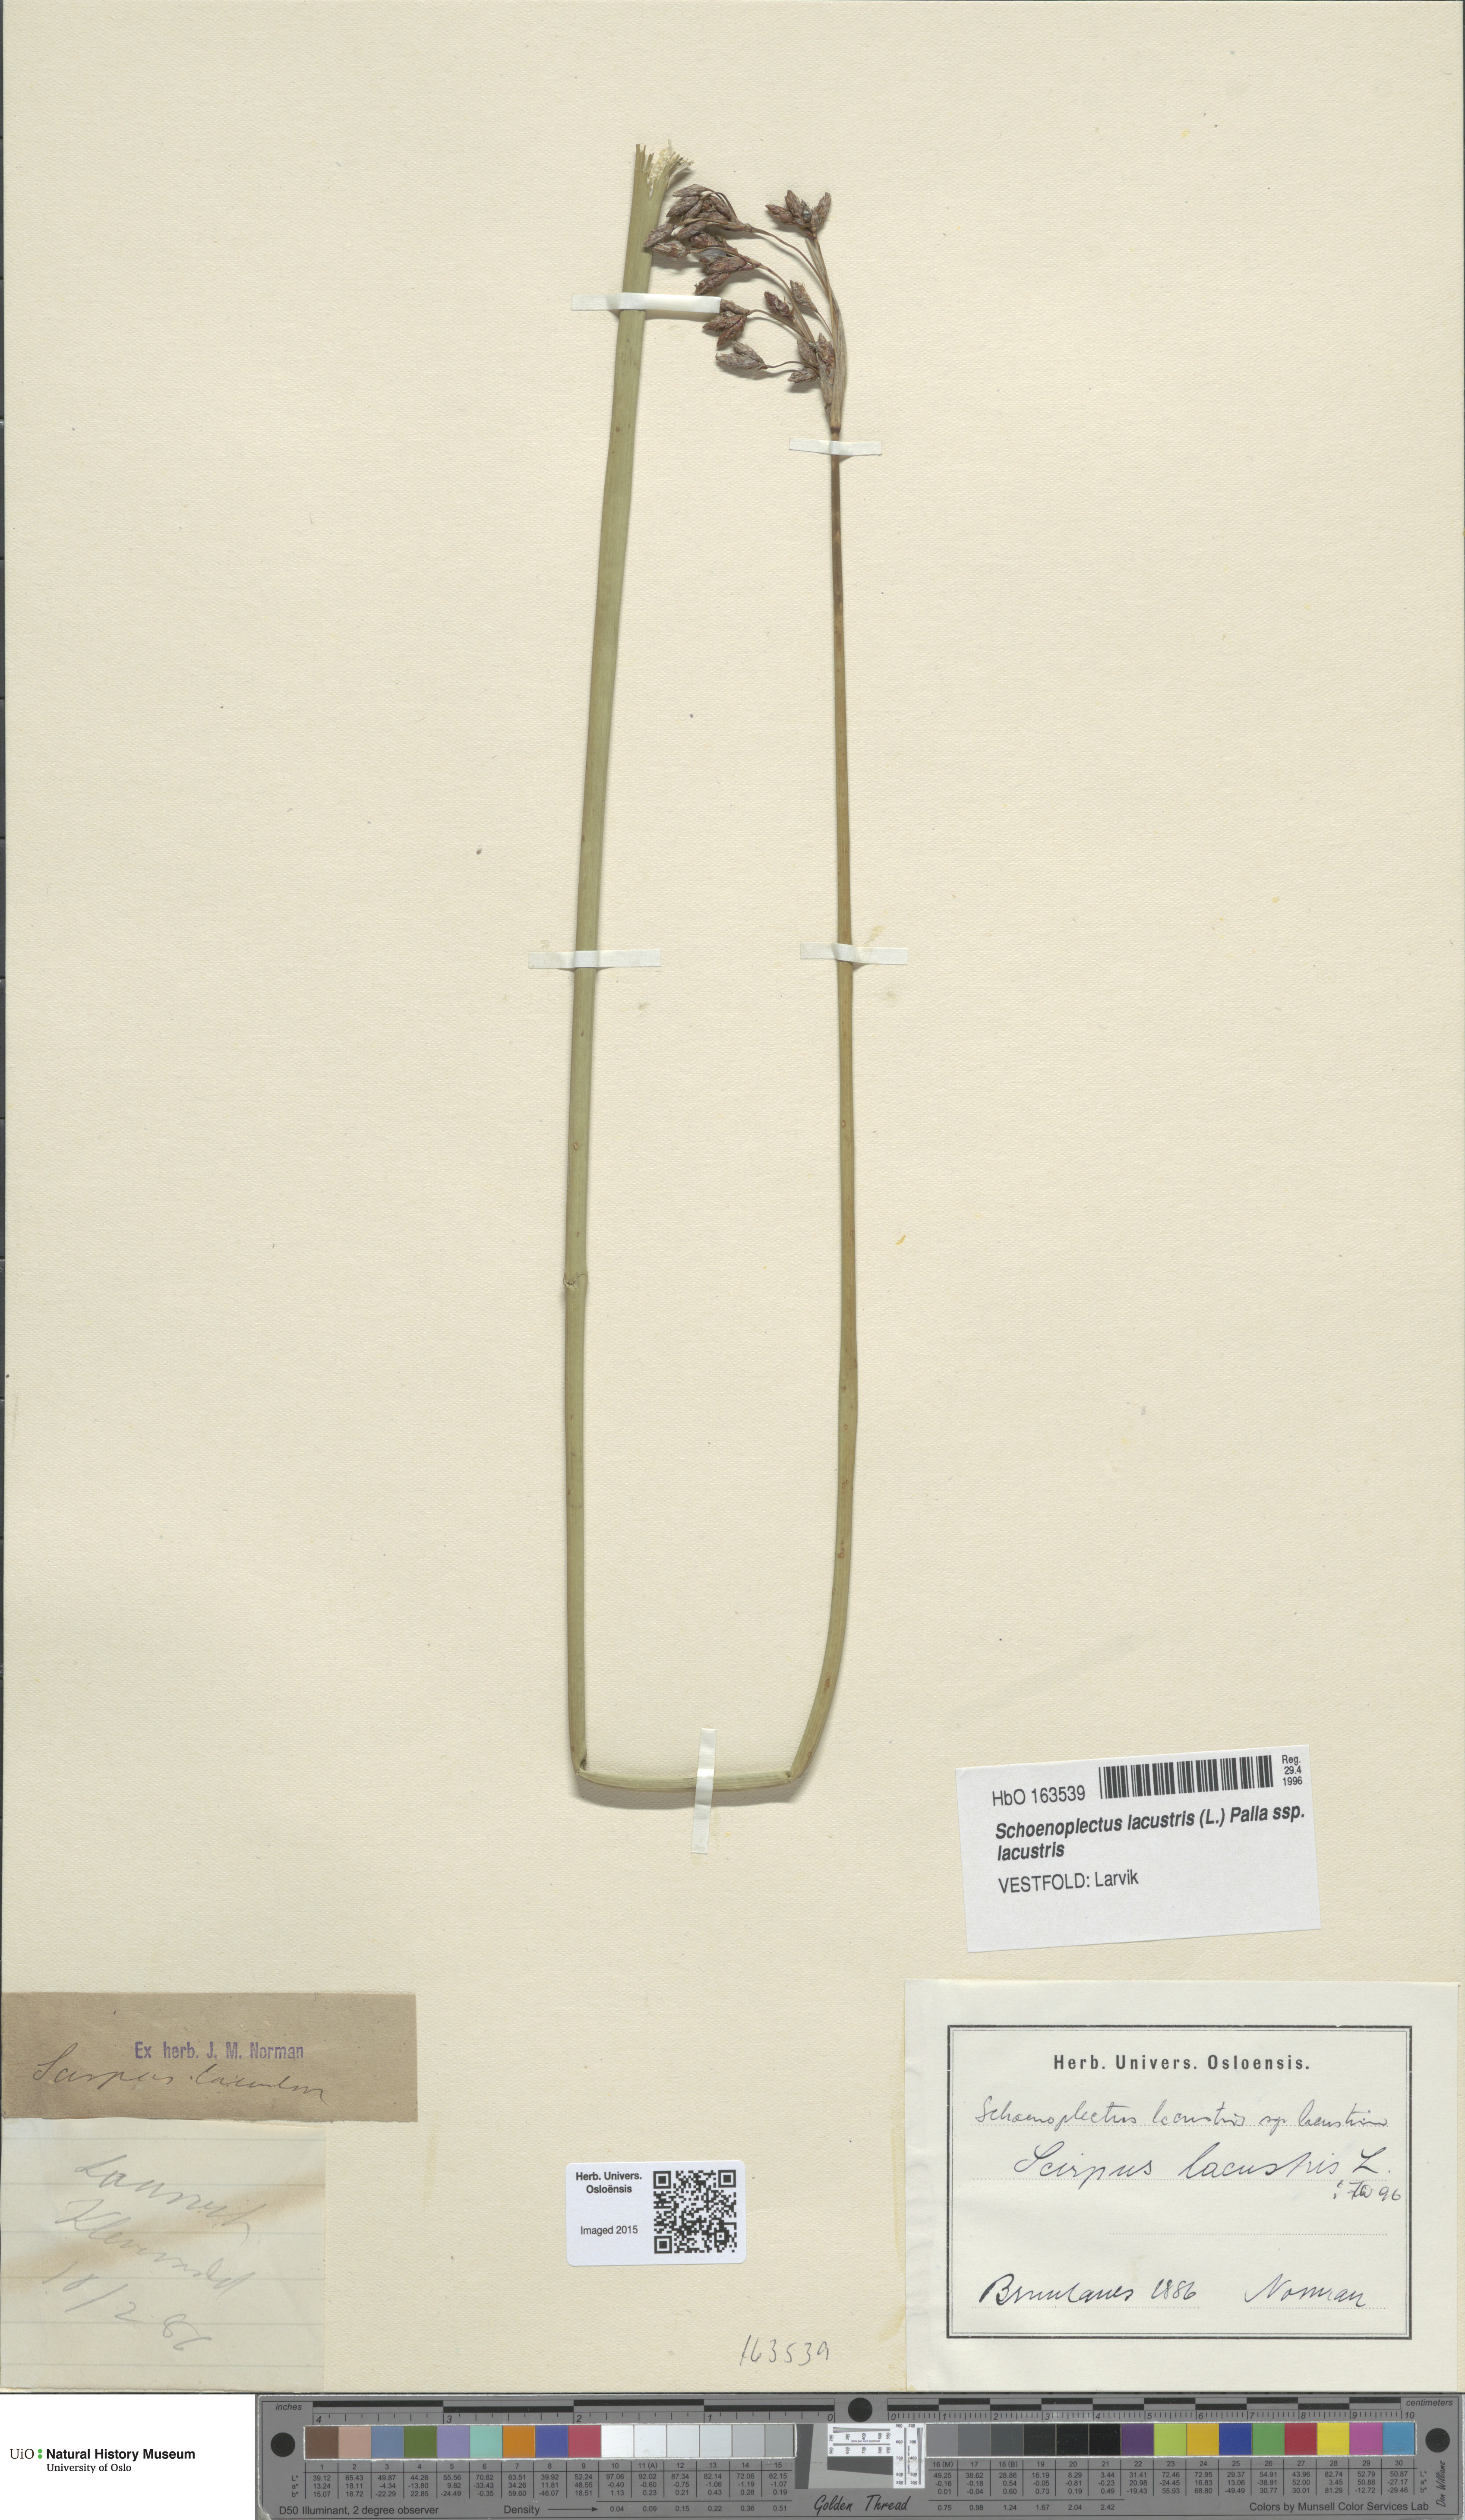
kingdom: Plantae
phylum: Tracheophyta
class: Liliopsida
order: Poales
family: Cyperaceae
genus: Schoenoplectus
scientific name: Schoenoplectus lacustris
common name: Common club-rush
